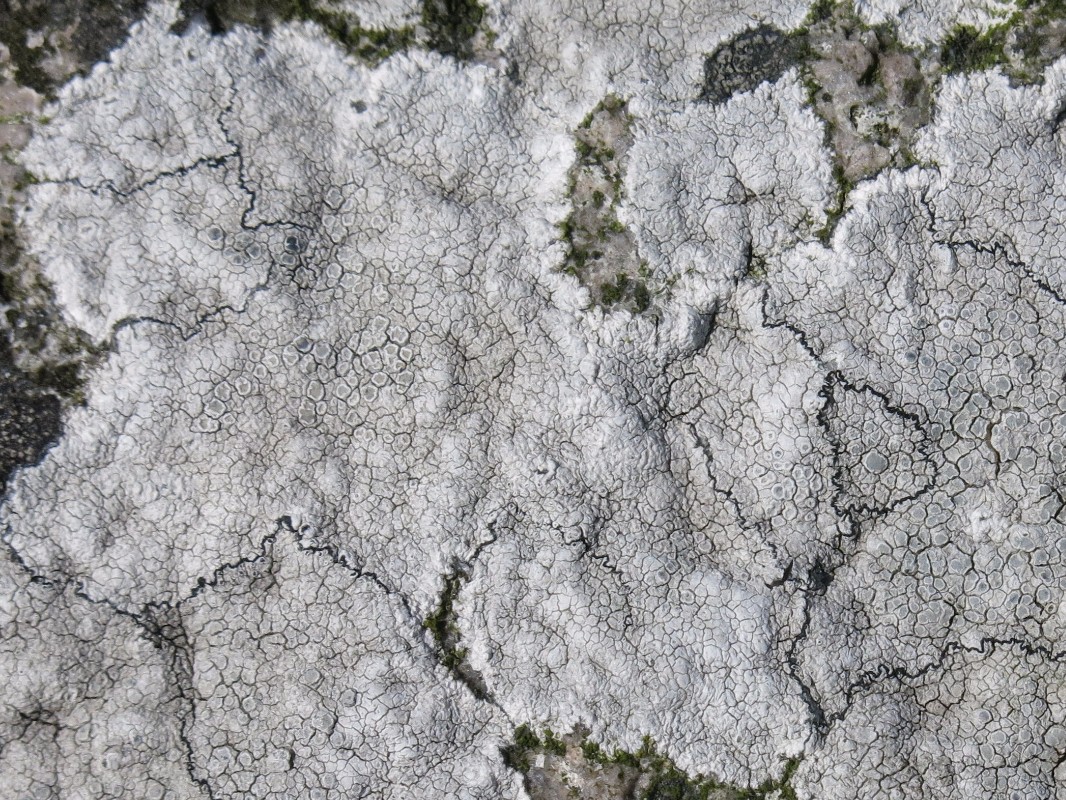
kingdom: Fungi
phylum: Ascomycota
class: Lecanoromycetes
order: Lecanorales
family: Lecanoraceae
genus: Glaucomaria
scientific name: Glaucomaria rupicola
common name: stengærde-kantskivelav
